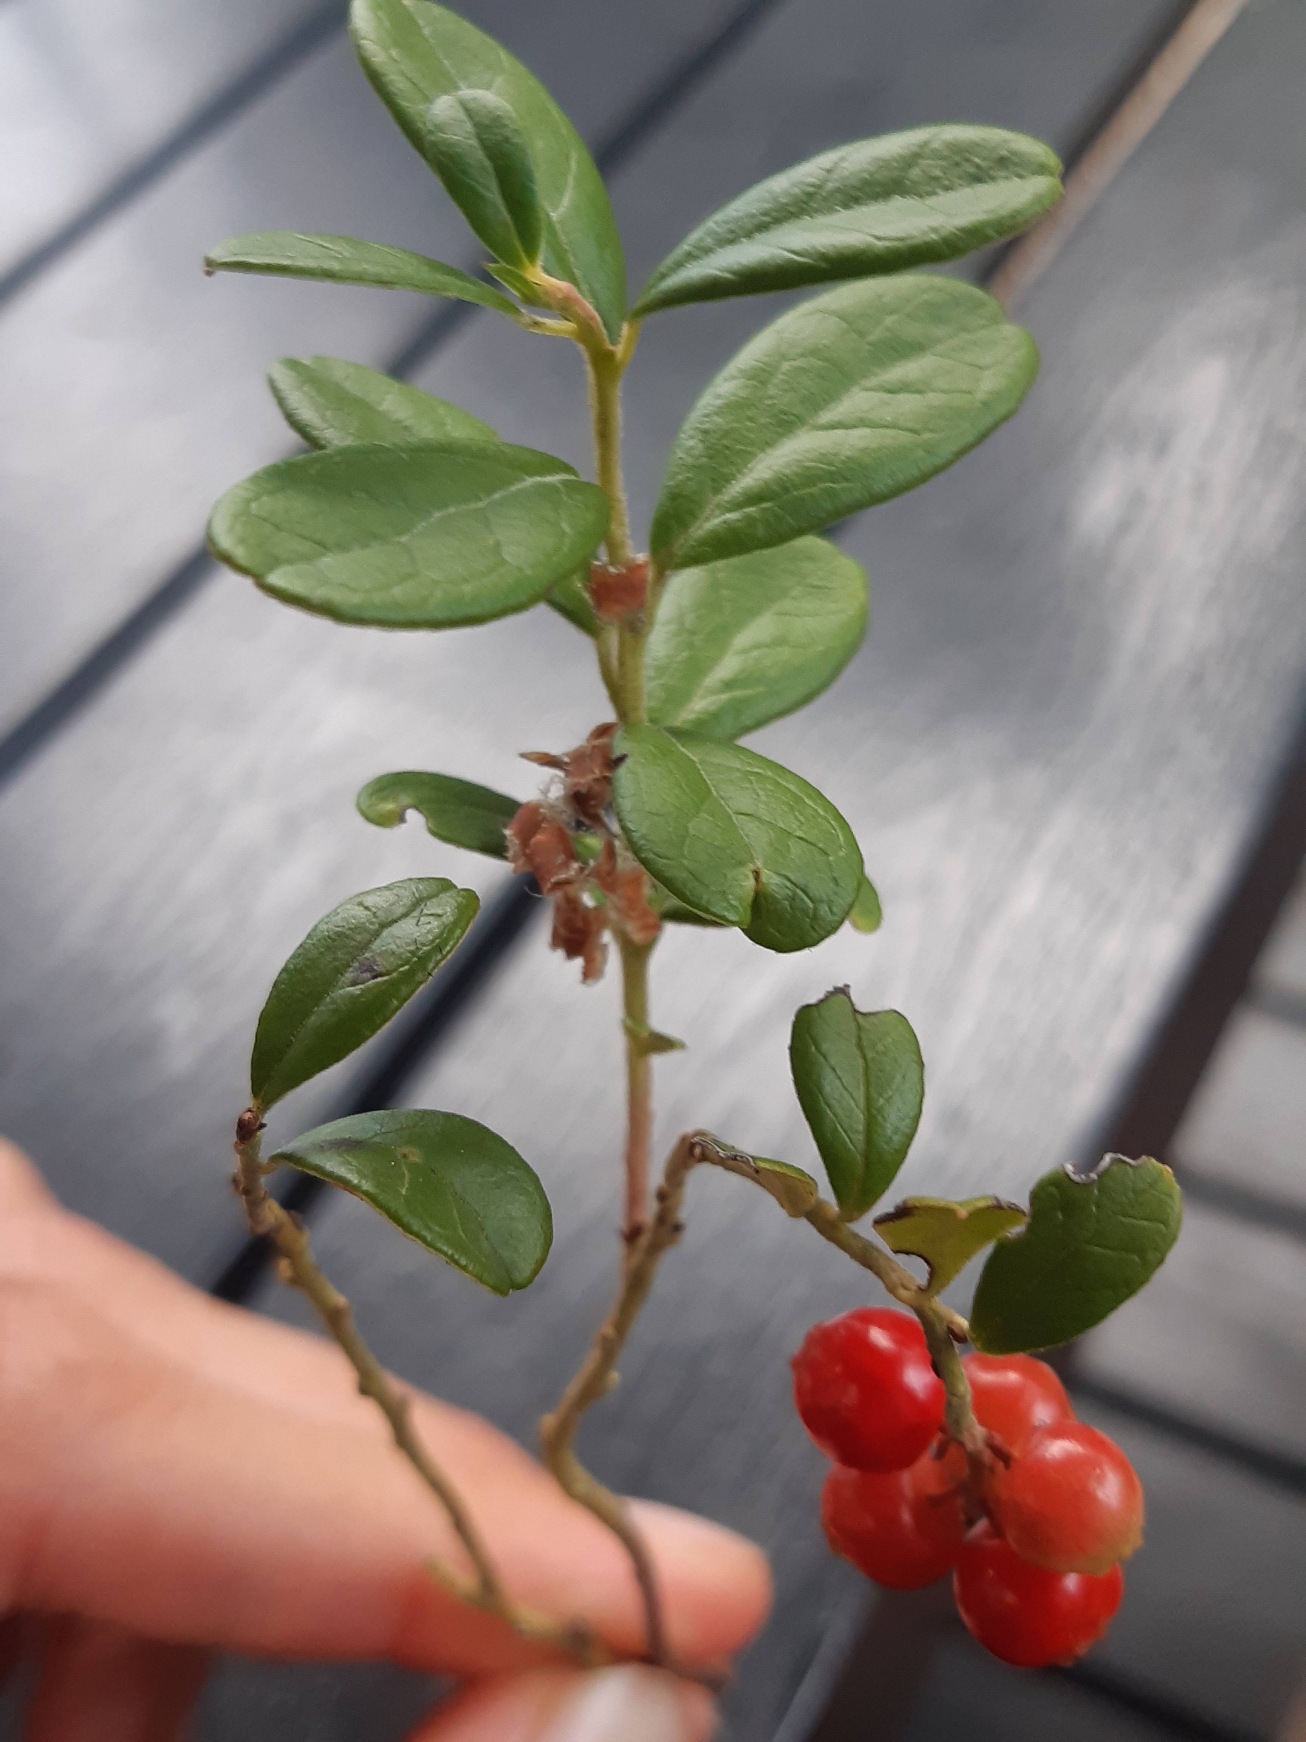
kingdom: Plantae
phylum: Tracheophyta
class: Magnoliopsida
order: Ericales
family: Ericaceae
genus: Vaccinium
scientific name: Vaccinium vitis-idaea
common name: Tyttebær
